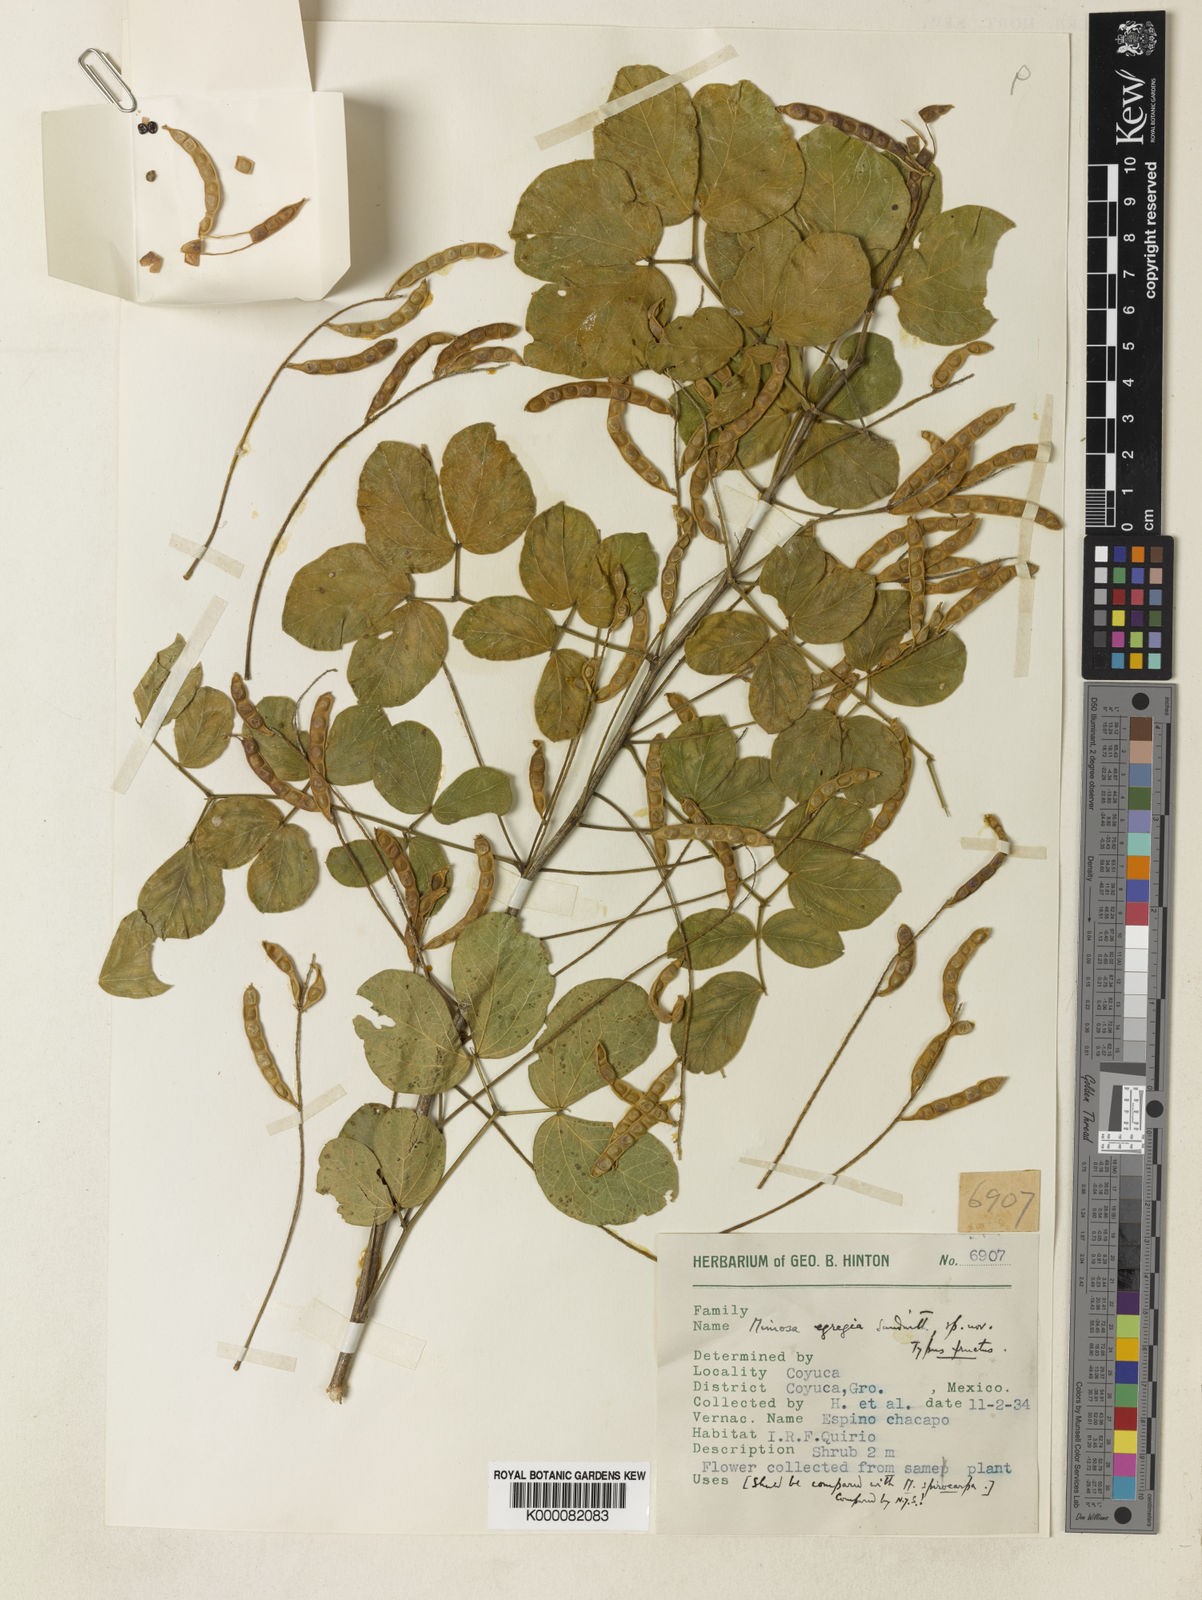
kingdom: Plantae
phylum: Tracheophyta
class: Magnoliopsida
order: Fabales
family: Fabaceae
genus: Mimosa
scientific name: Mimosa egregia
